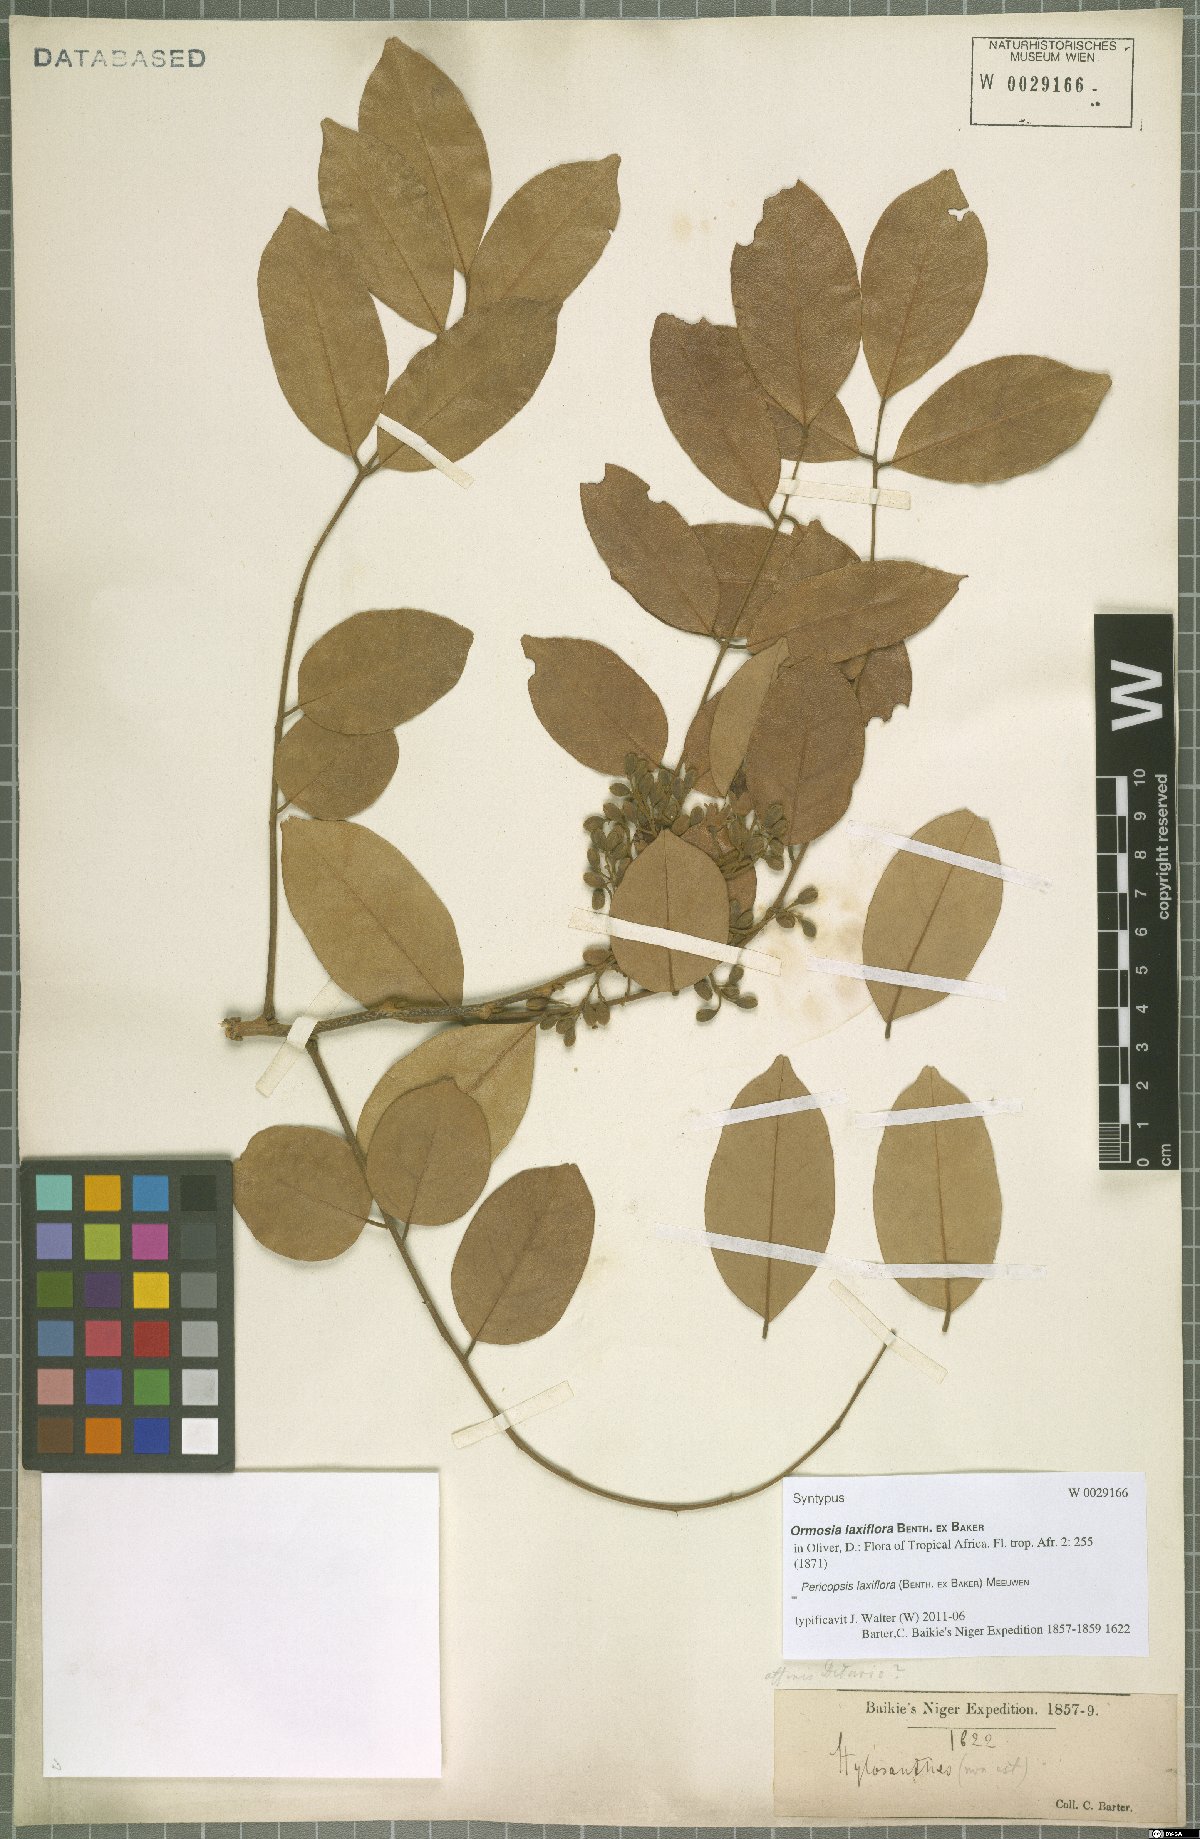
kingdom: Plantae
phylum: Tracheophyta
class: Magnoliopsida
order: Fabales
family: Fabaceae
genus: Pericopsis
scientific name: Pericopsis laxiflora
